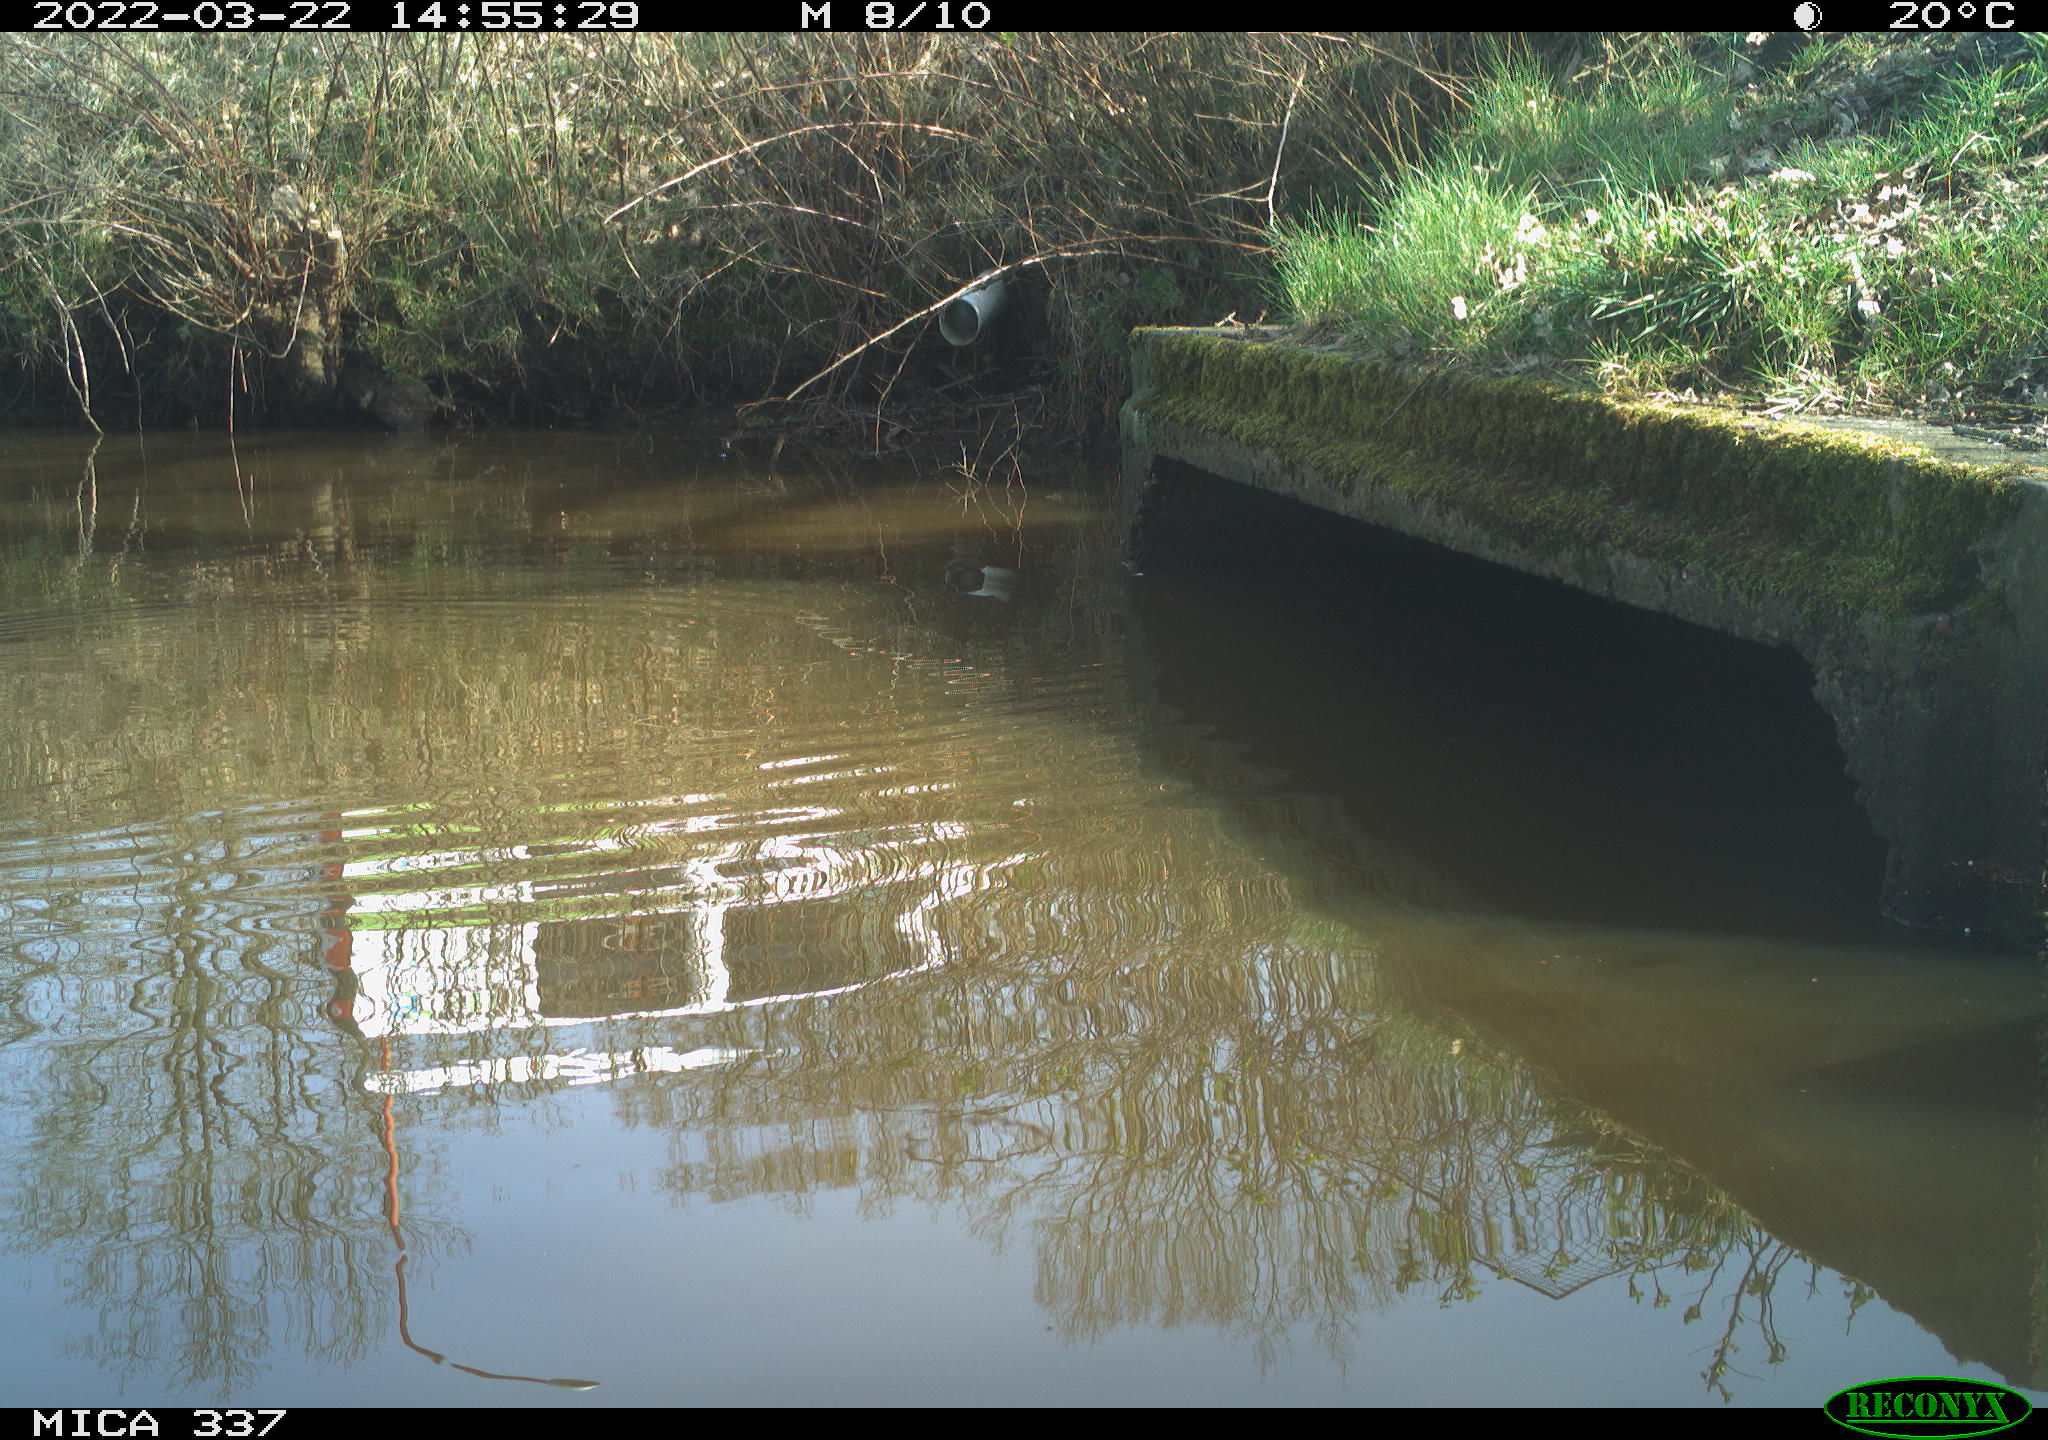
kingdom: Animalia
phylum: Chordata
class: Aves
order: Anseriformes
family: Anatidae
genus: Anas
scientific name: Anas platyrhynchos
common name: Mallard
